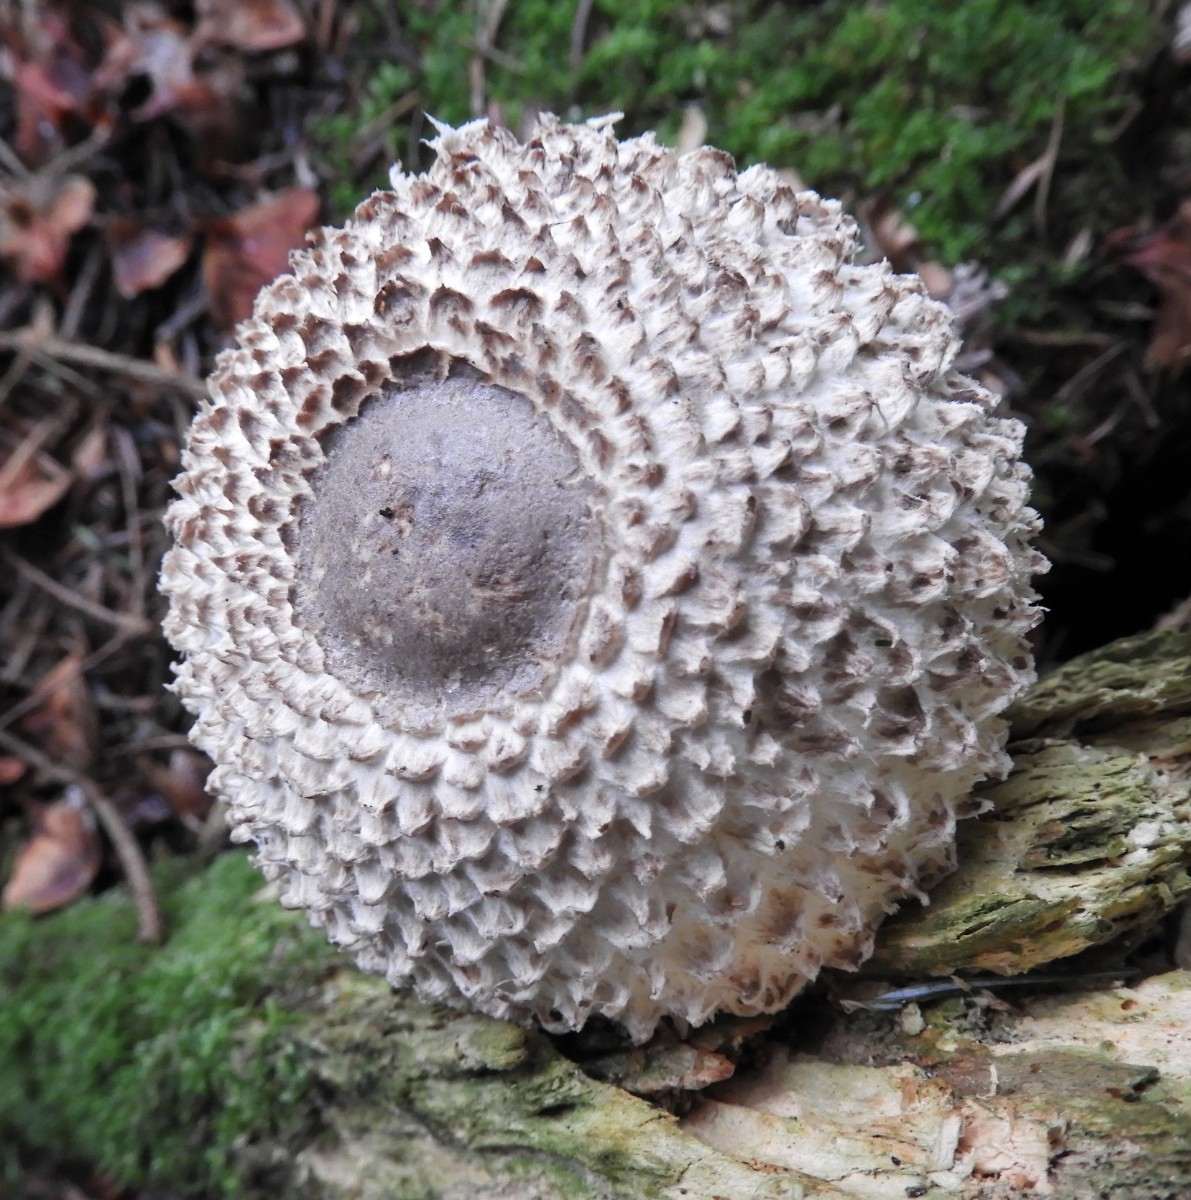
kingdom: Fungi
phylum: Basidiomycota
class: Agaricomycetes
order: Agaricales
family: Agaricaceae
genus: Leucoagaricus
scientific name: Leucoagaricus nympharum
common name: gran-silkehat
